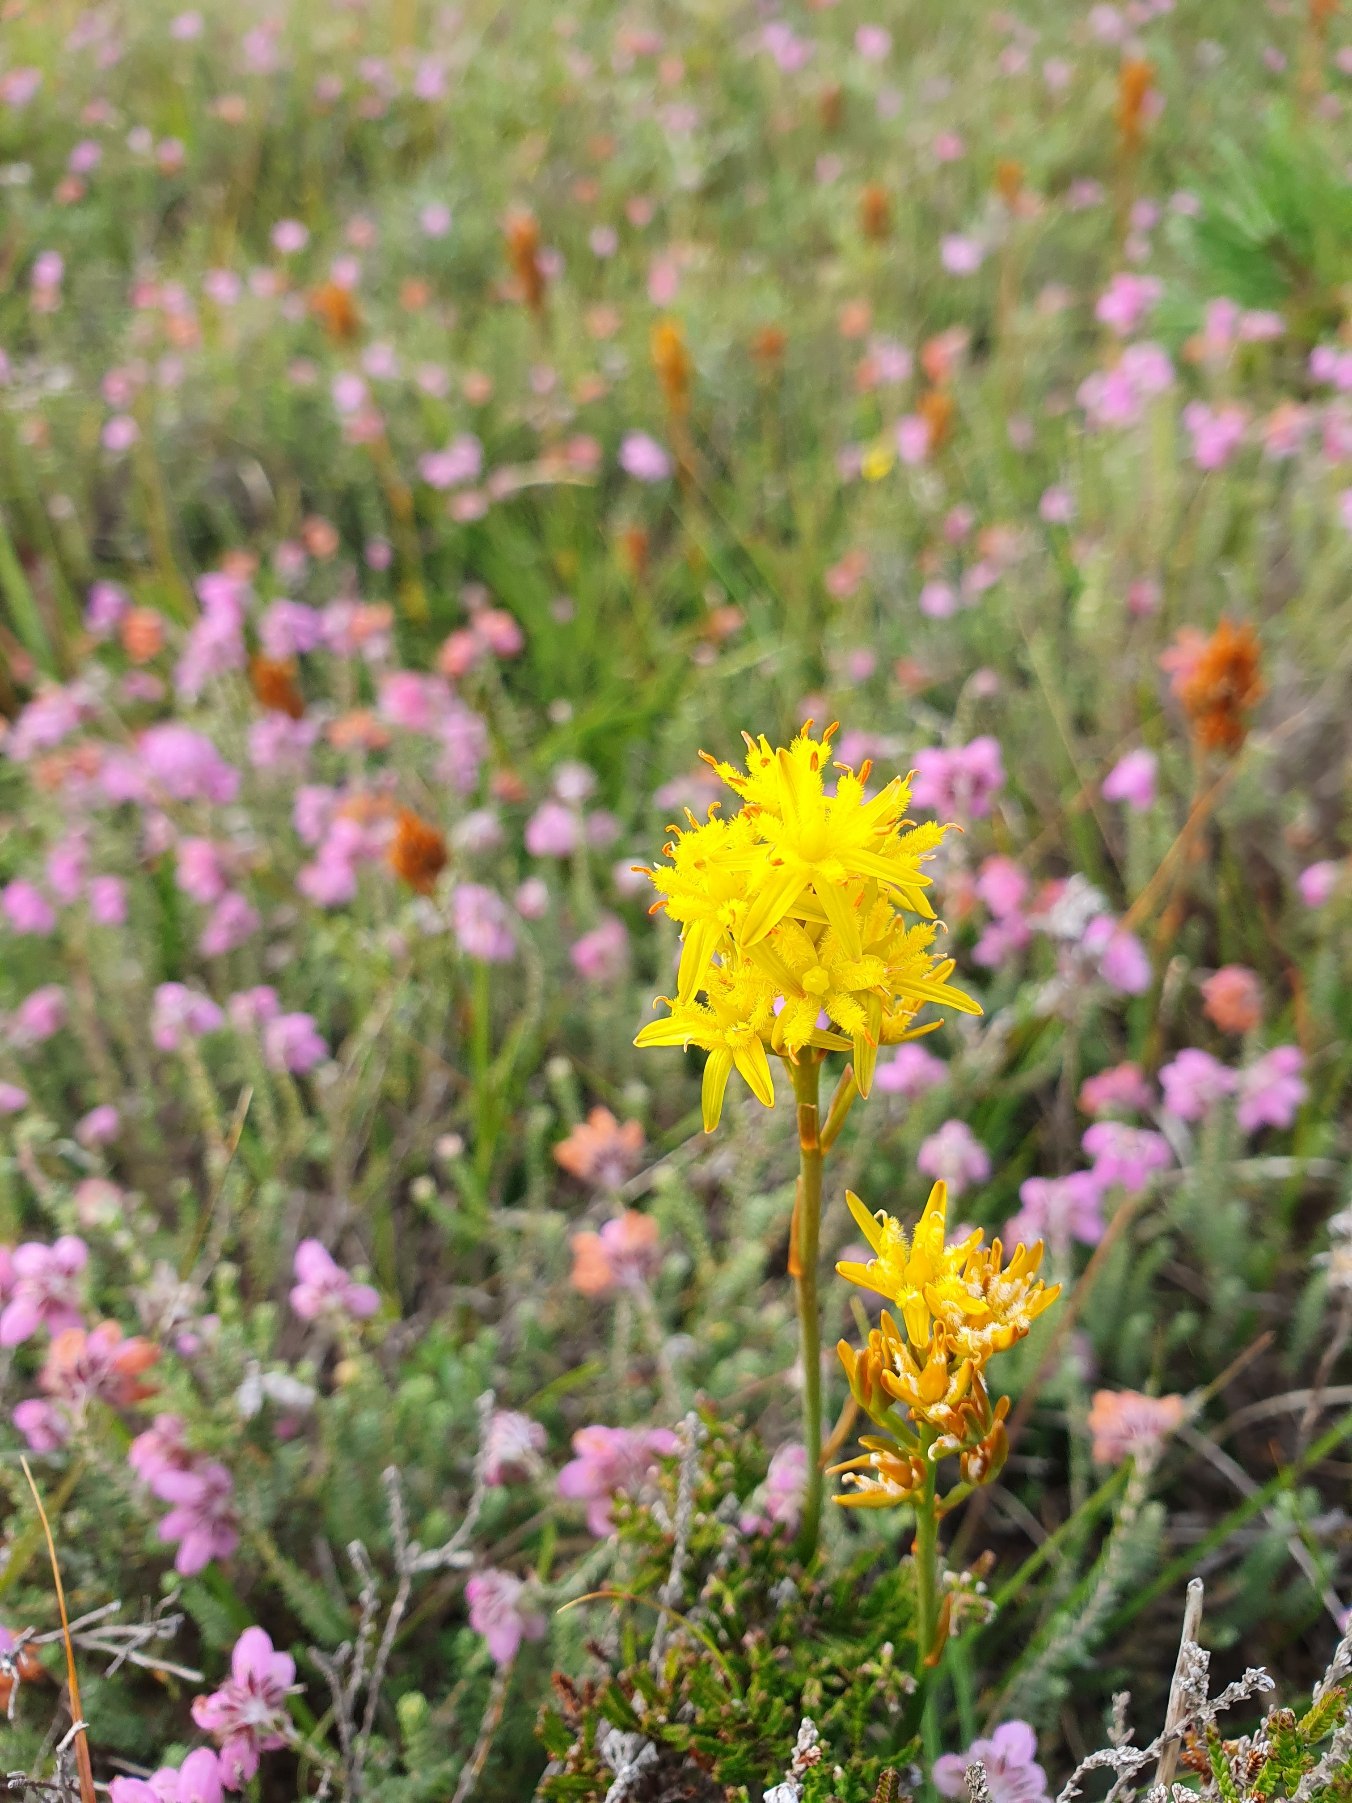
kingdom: Plantae
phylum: Tracheophyta
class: Liliopsida
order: Dioscoreales
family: Nartheciaceae
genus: Narthecium
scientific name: Narthecium ossifragum
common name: Benbræk
